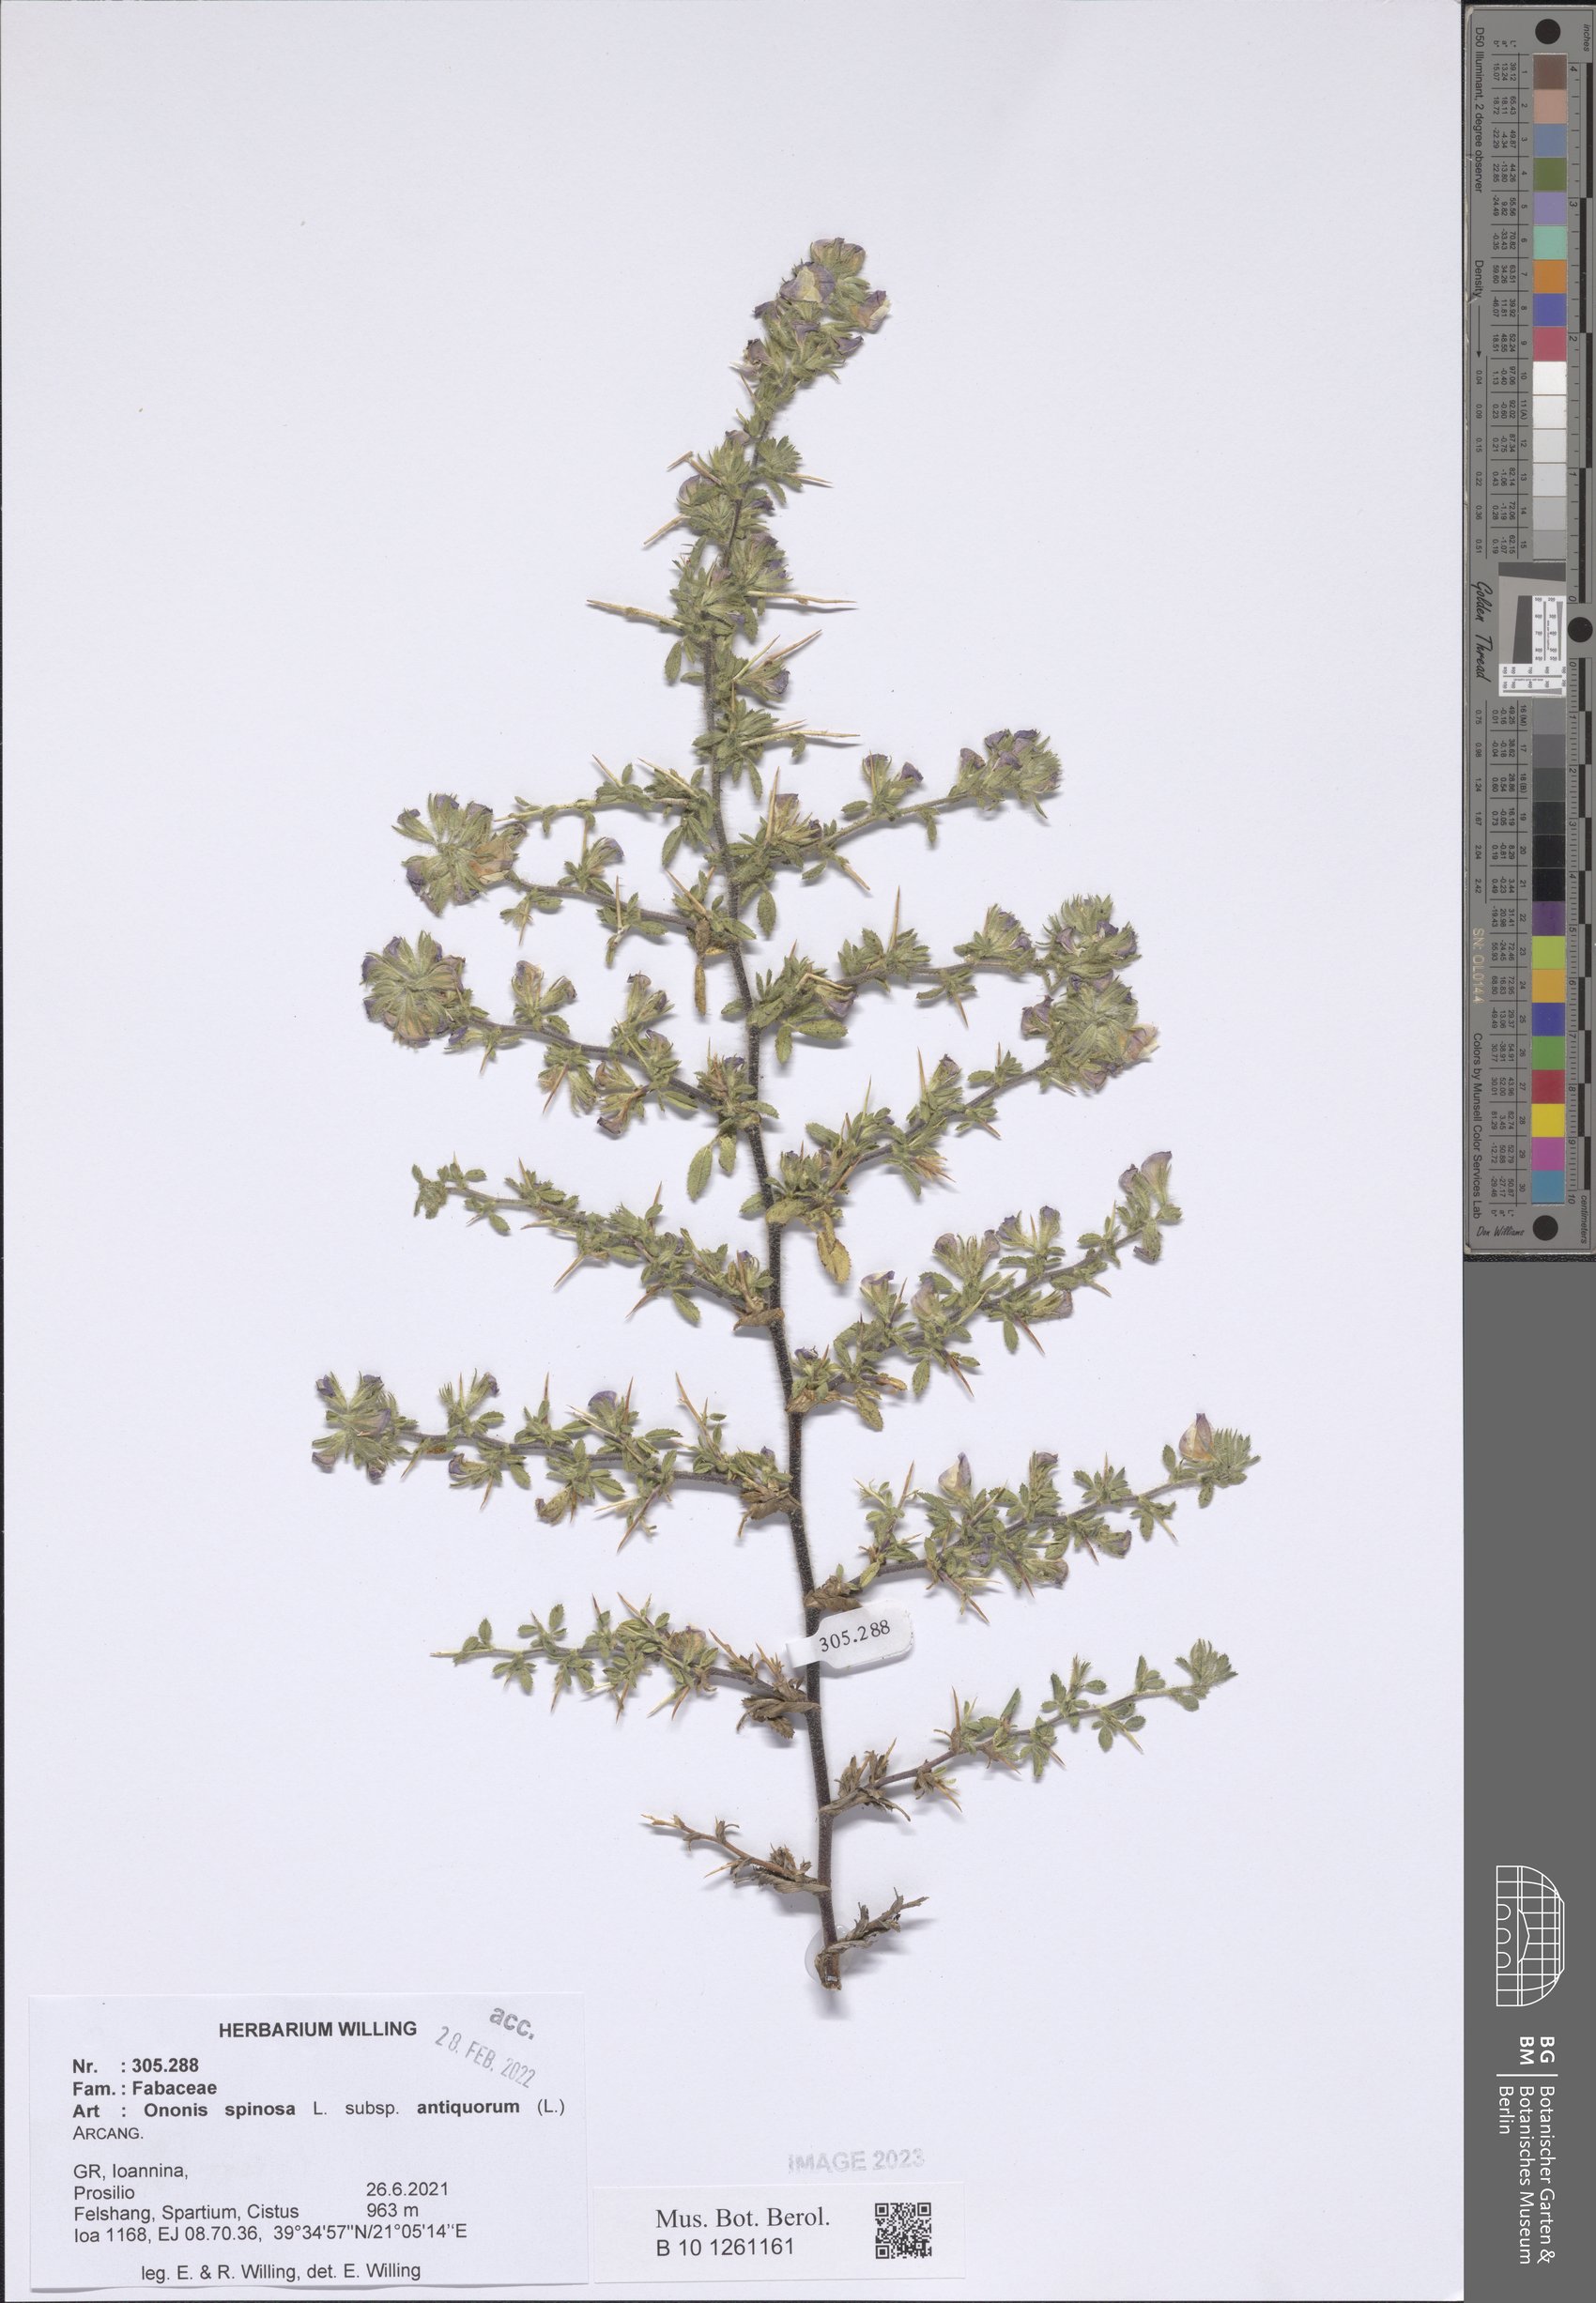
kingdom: Plantae
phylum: Tracheophyta
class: Magnoliopsida
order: Fabales
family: Fabaceae
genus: Ononis
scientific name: Ononis spinosa
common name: Spiny restharrow
